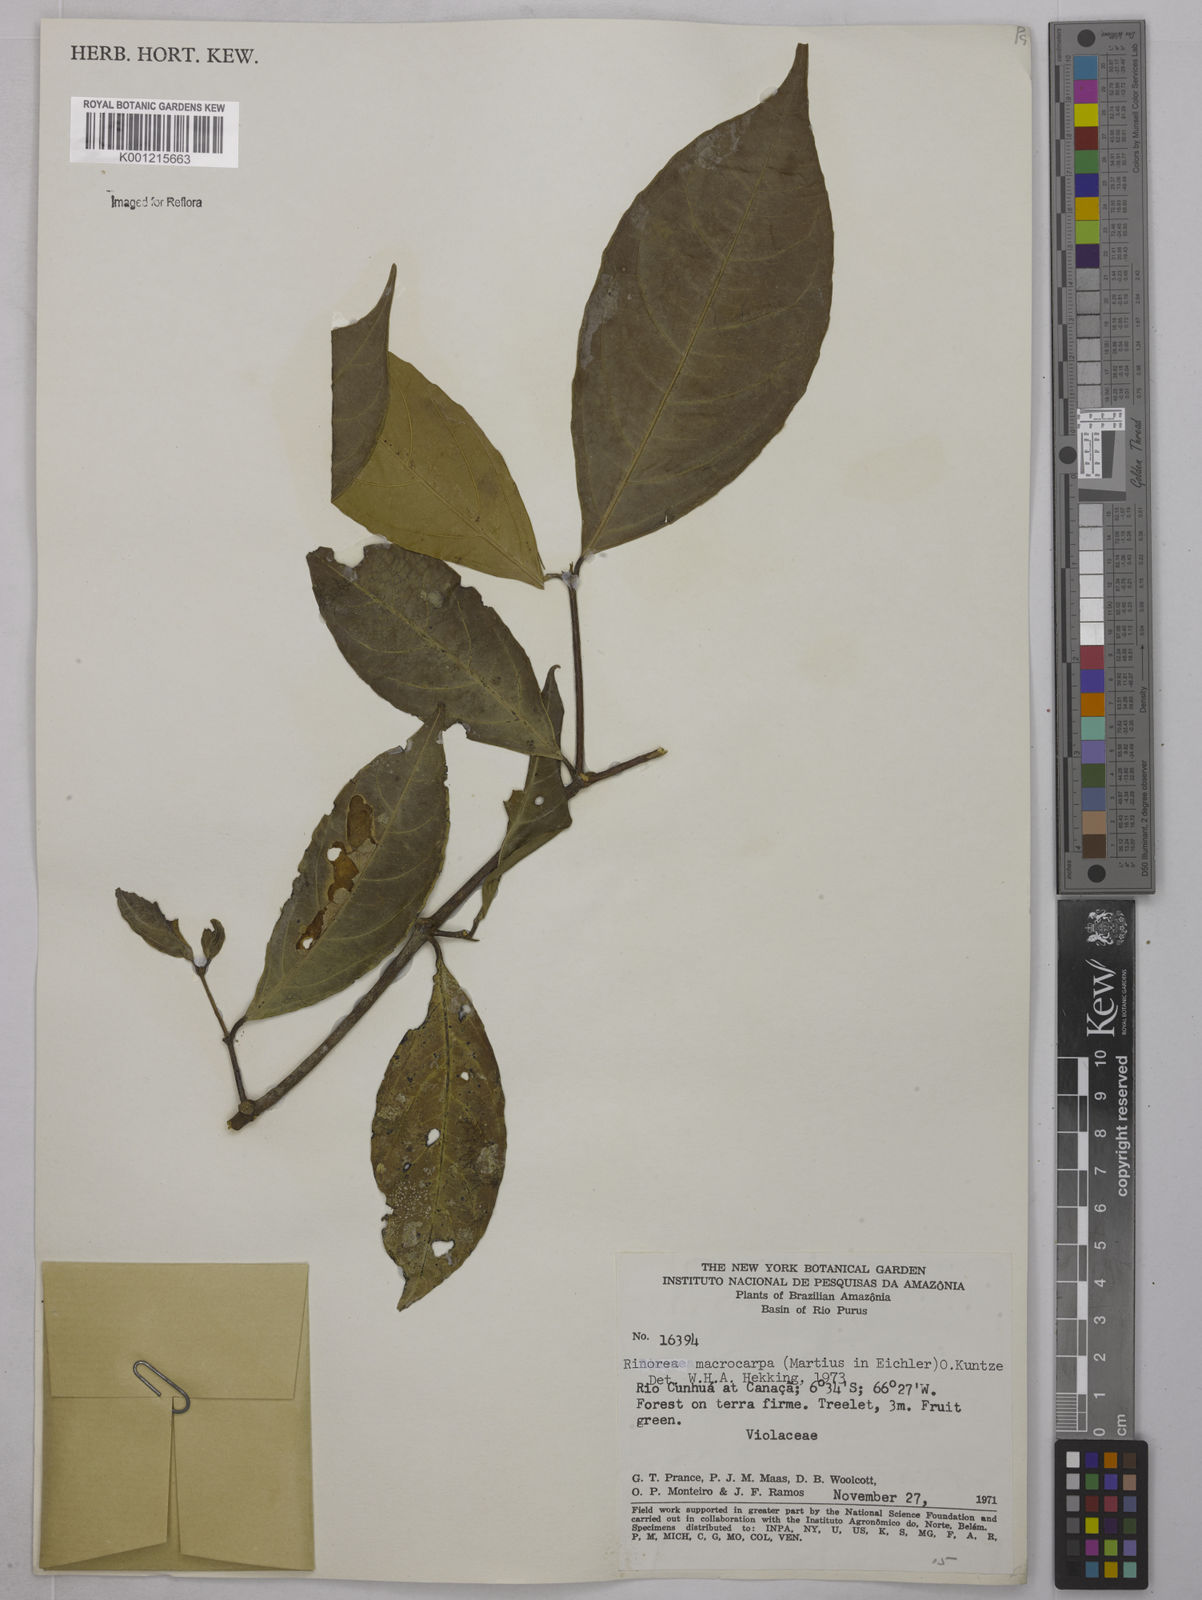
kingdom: Plantae
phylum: Tracheophyta
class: Magnoliopsida
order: Malpighiales
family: Violaceae
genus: Rinorea
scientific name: Rinorea macrocarpa
